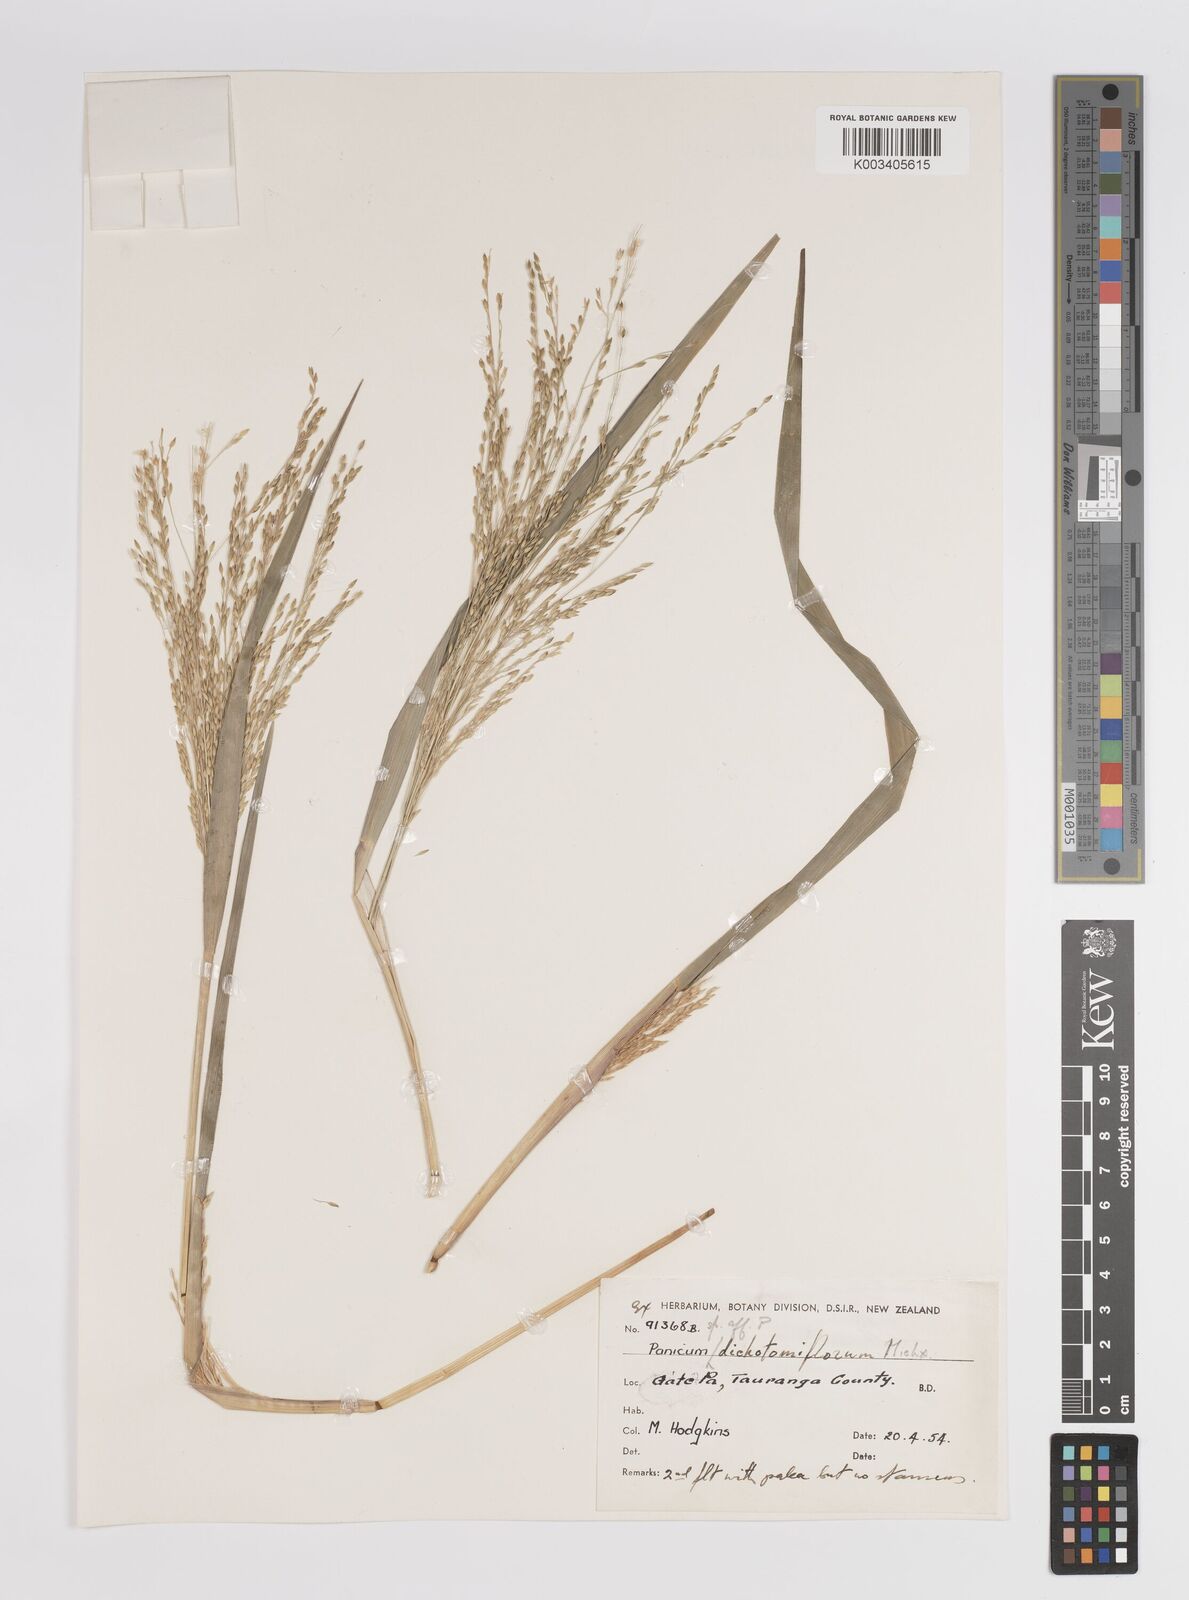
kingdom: Plantae
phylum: Tracheophyta
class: Liliopsida
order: Poales
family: Poaceae
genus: Panicum
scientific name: Panicum
